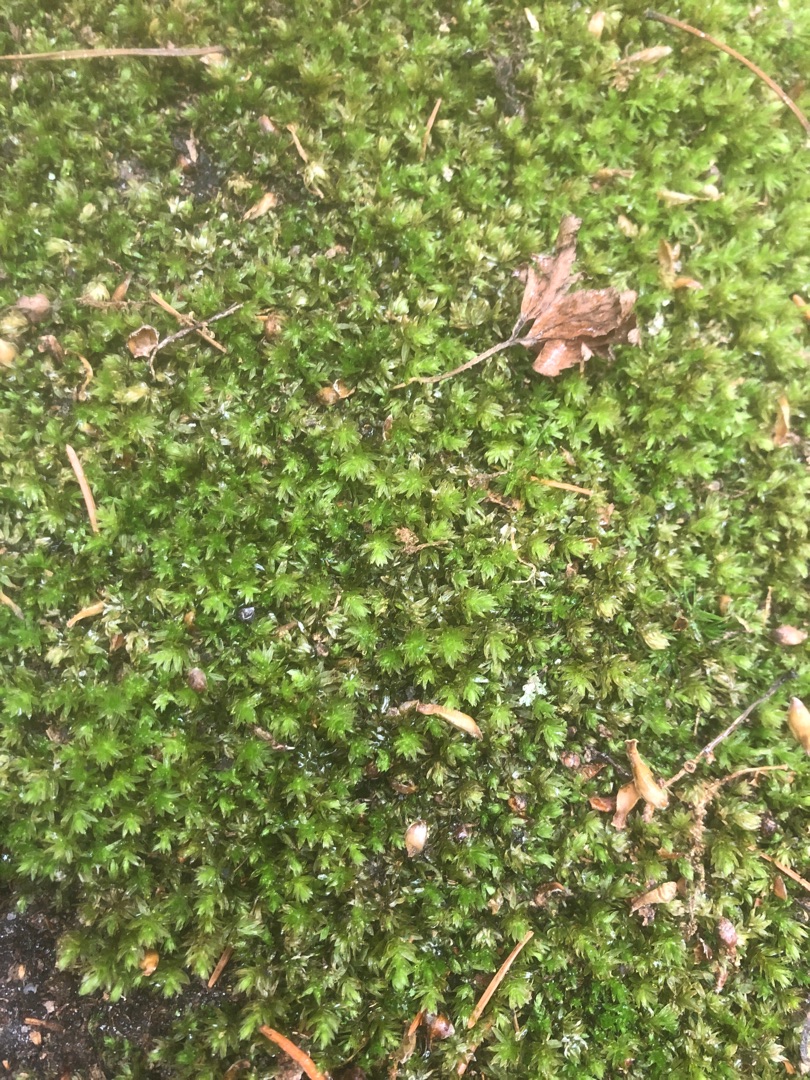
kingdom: Plantae
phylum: Bryophyta
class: Bryopsida
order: Bryales
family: Mniaceae
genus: Mnium
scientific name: Mnium hornum
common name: Brunfiltet stjernemos
